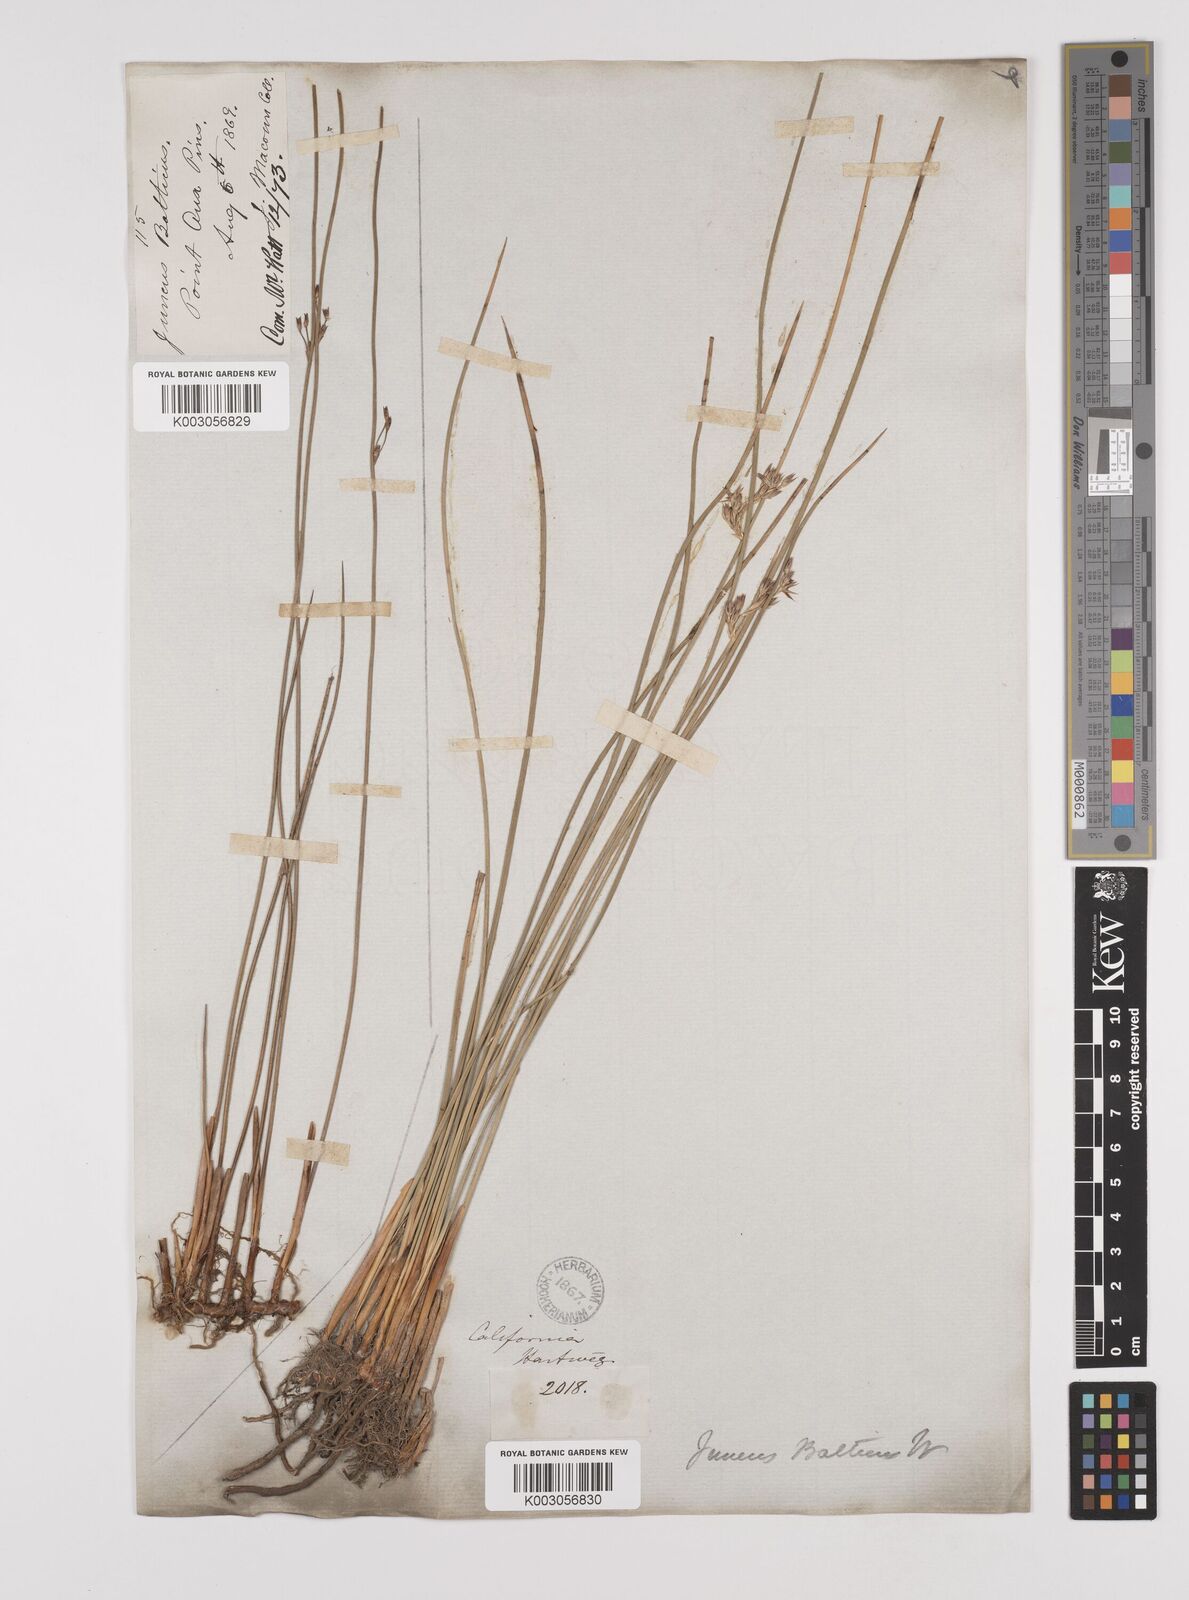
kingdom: Plantae
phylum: Tracheophyta
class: Liliopsida
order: Poales
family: Juncaceae
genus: Juncus
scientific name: Juncus balticus
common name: Baltic rush
